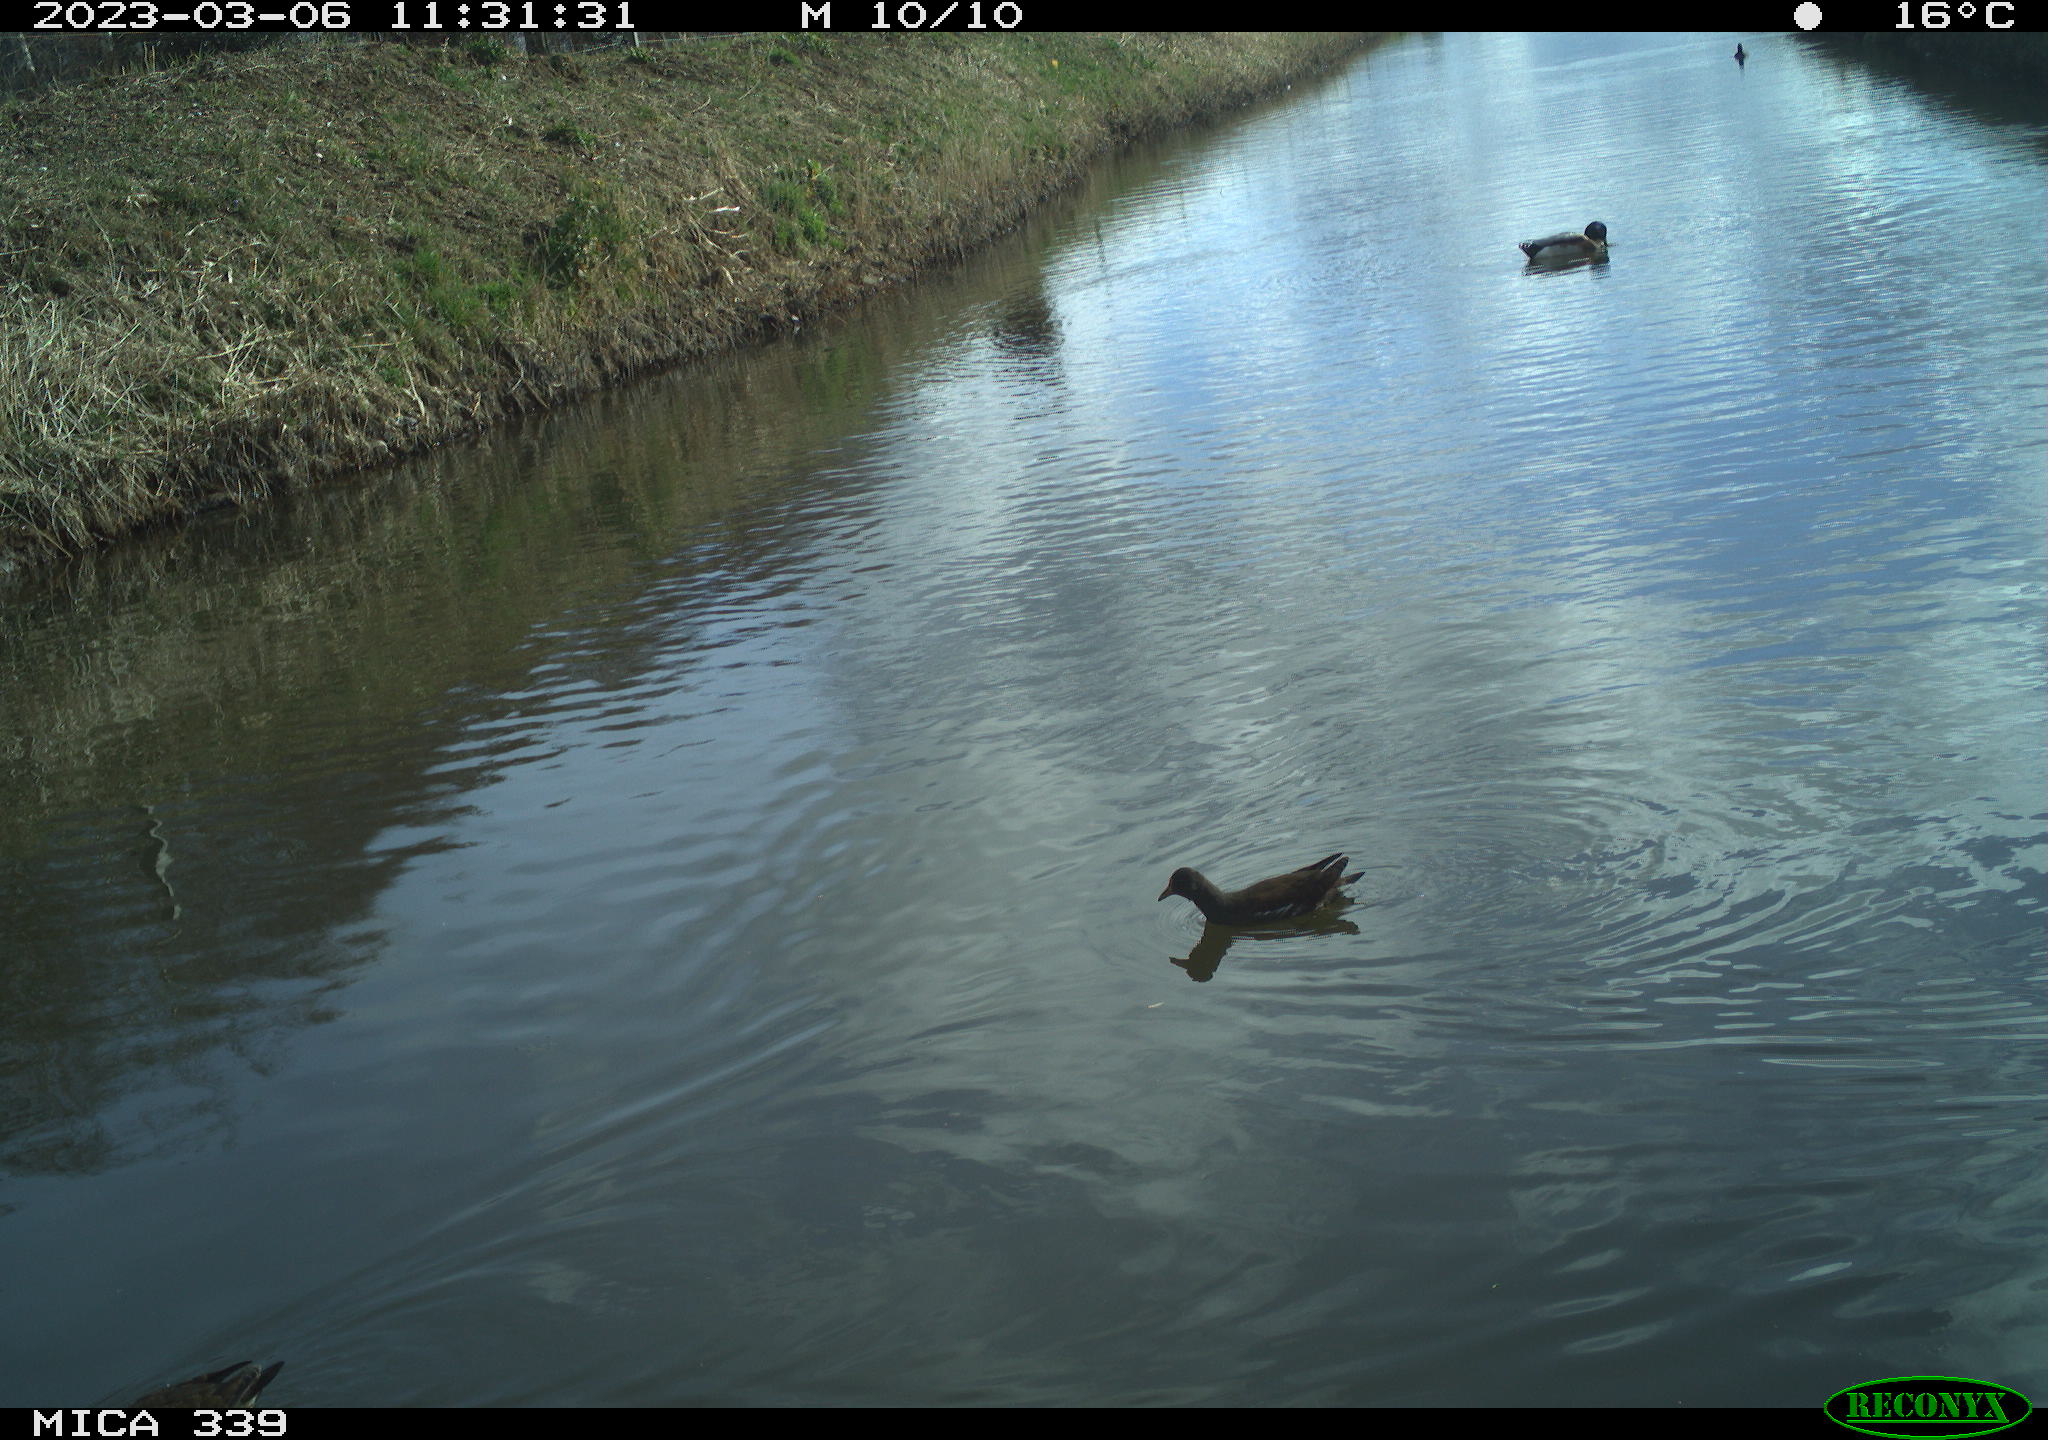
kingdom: Animalia
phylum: Chordata
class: Aves
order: Gruiformes
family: Rallidae
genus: Gallinula
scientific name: Gallinula chloropus
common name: Common moorhen
